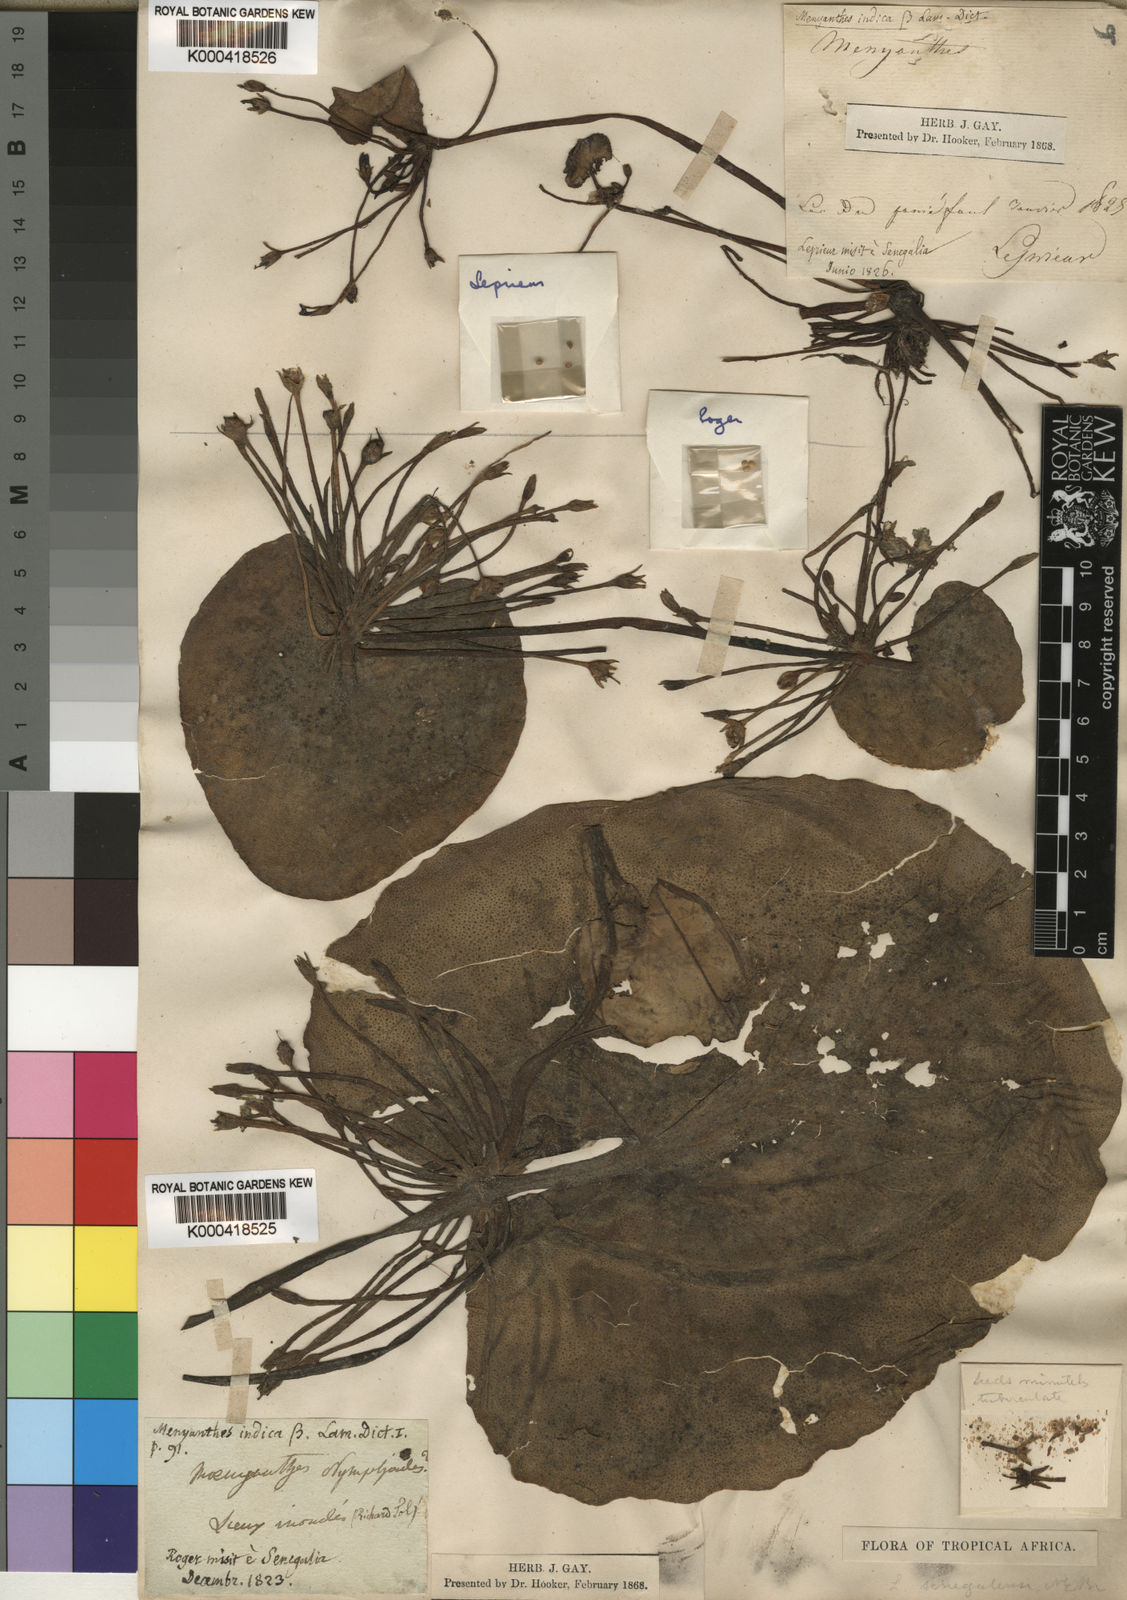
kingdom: Plantae
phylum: Tracheophyta
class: Magnoliopsida
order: Asterales
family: Menyanthaceae
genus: Nymphoides
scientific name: Nymphoides indica
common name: Water-snowflake
